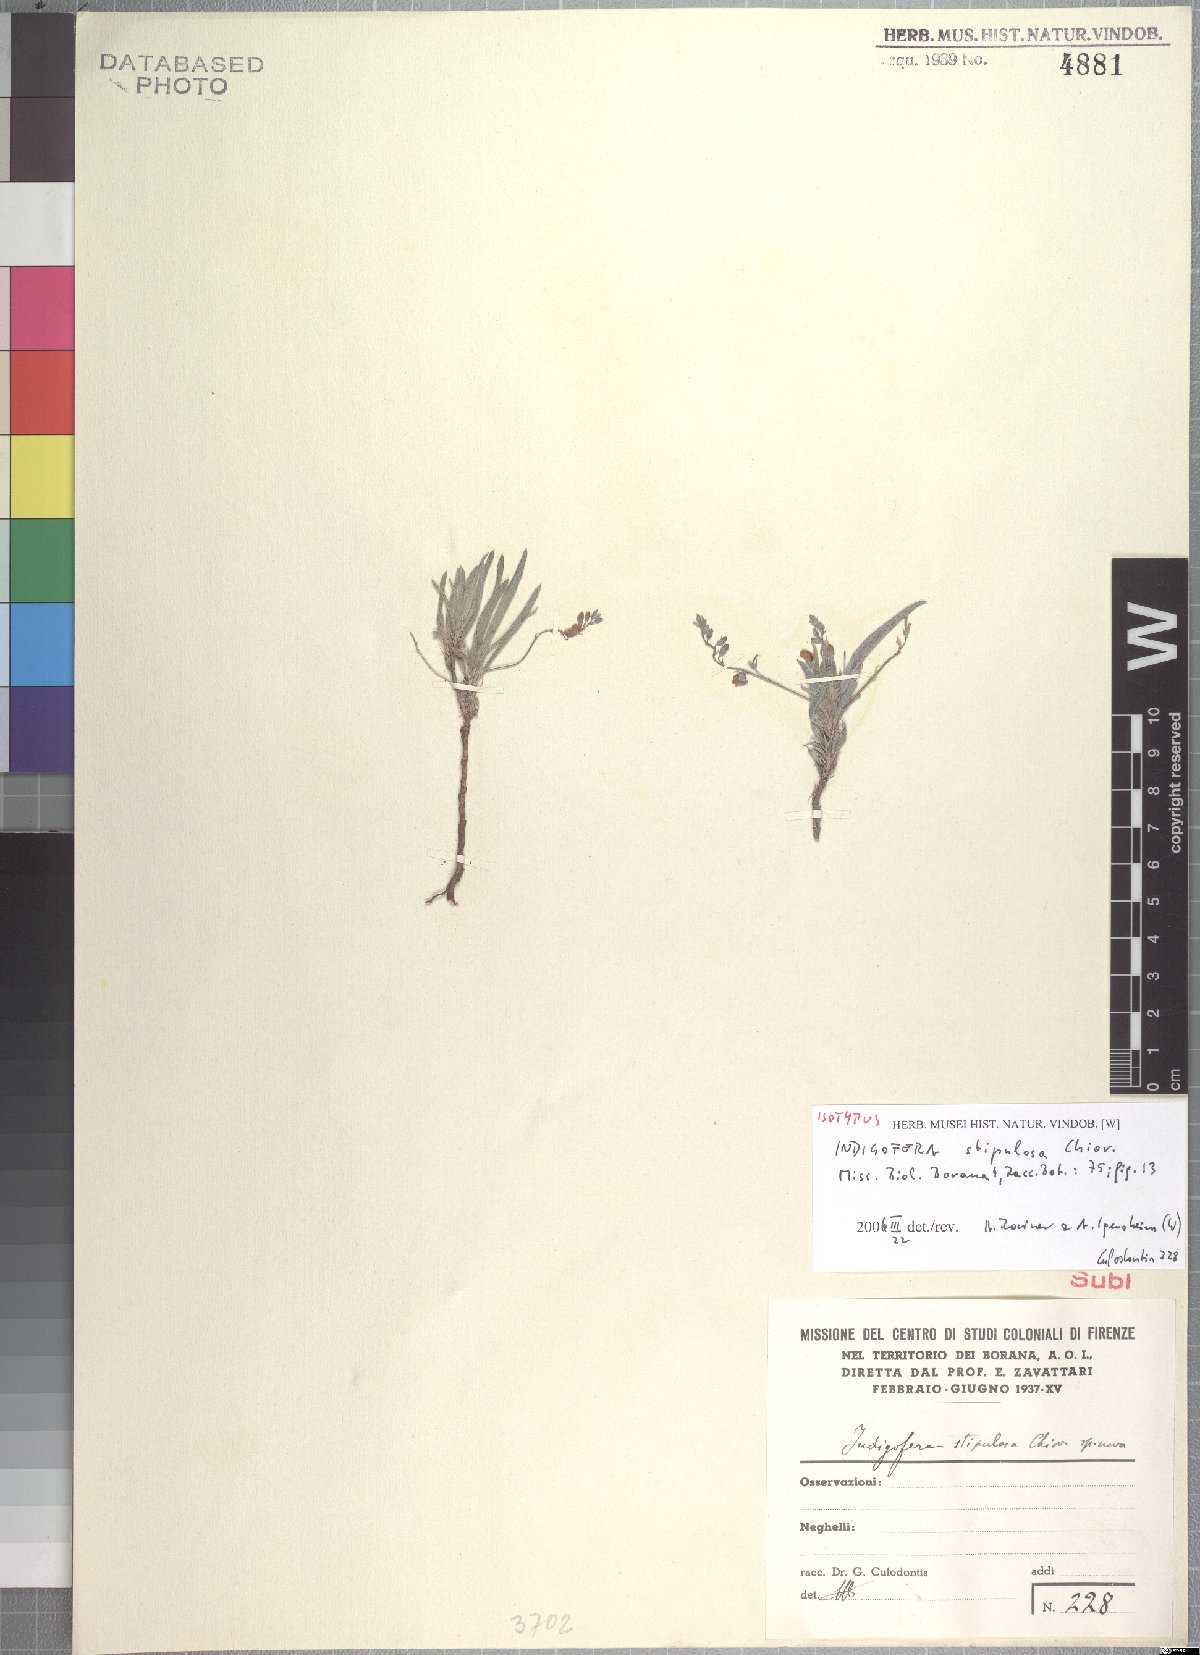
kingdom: Plantae
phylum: Tracheophyta
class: Magnoliopsida
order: Fabales
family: Fabaceae
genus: Microcharis
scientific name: Microcharis stipulosa
